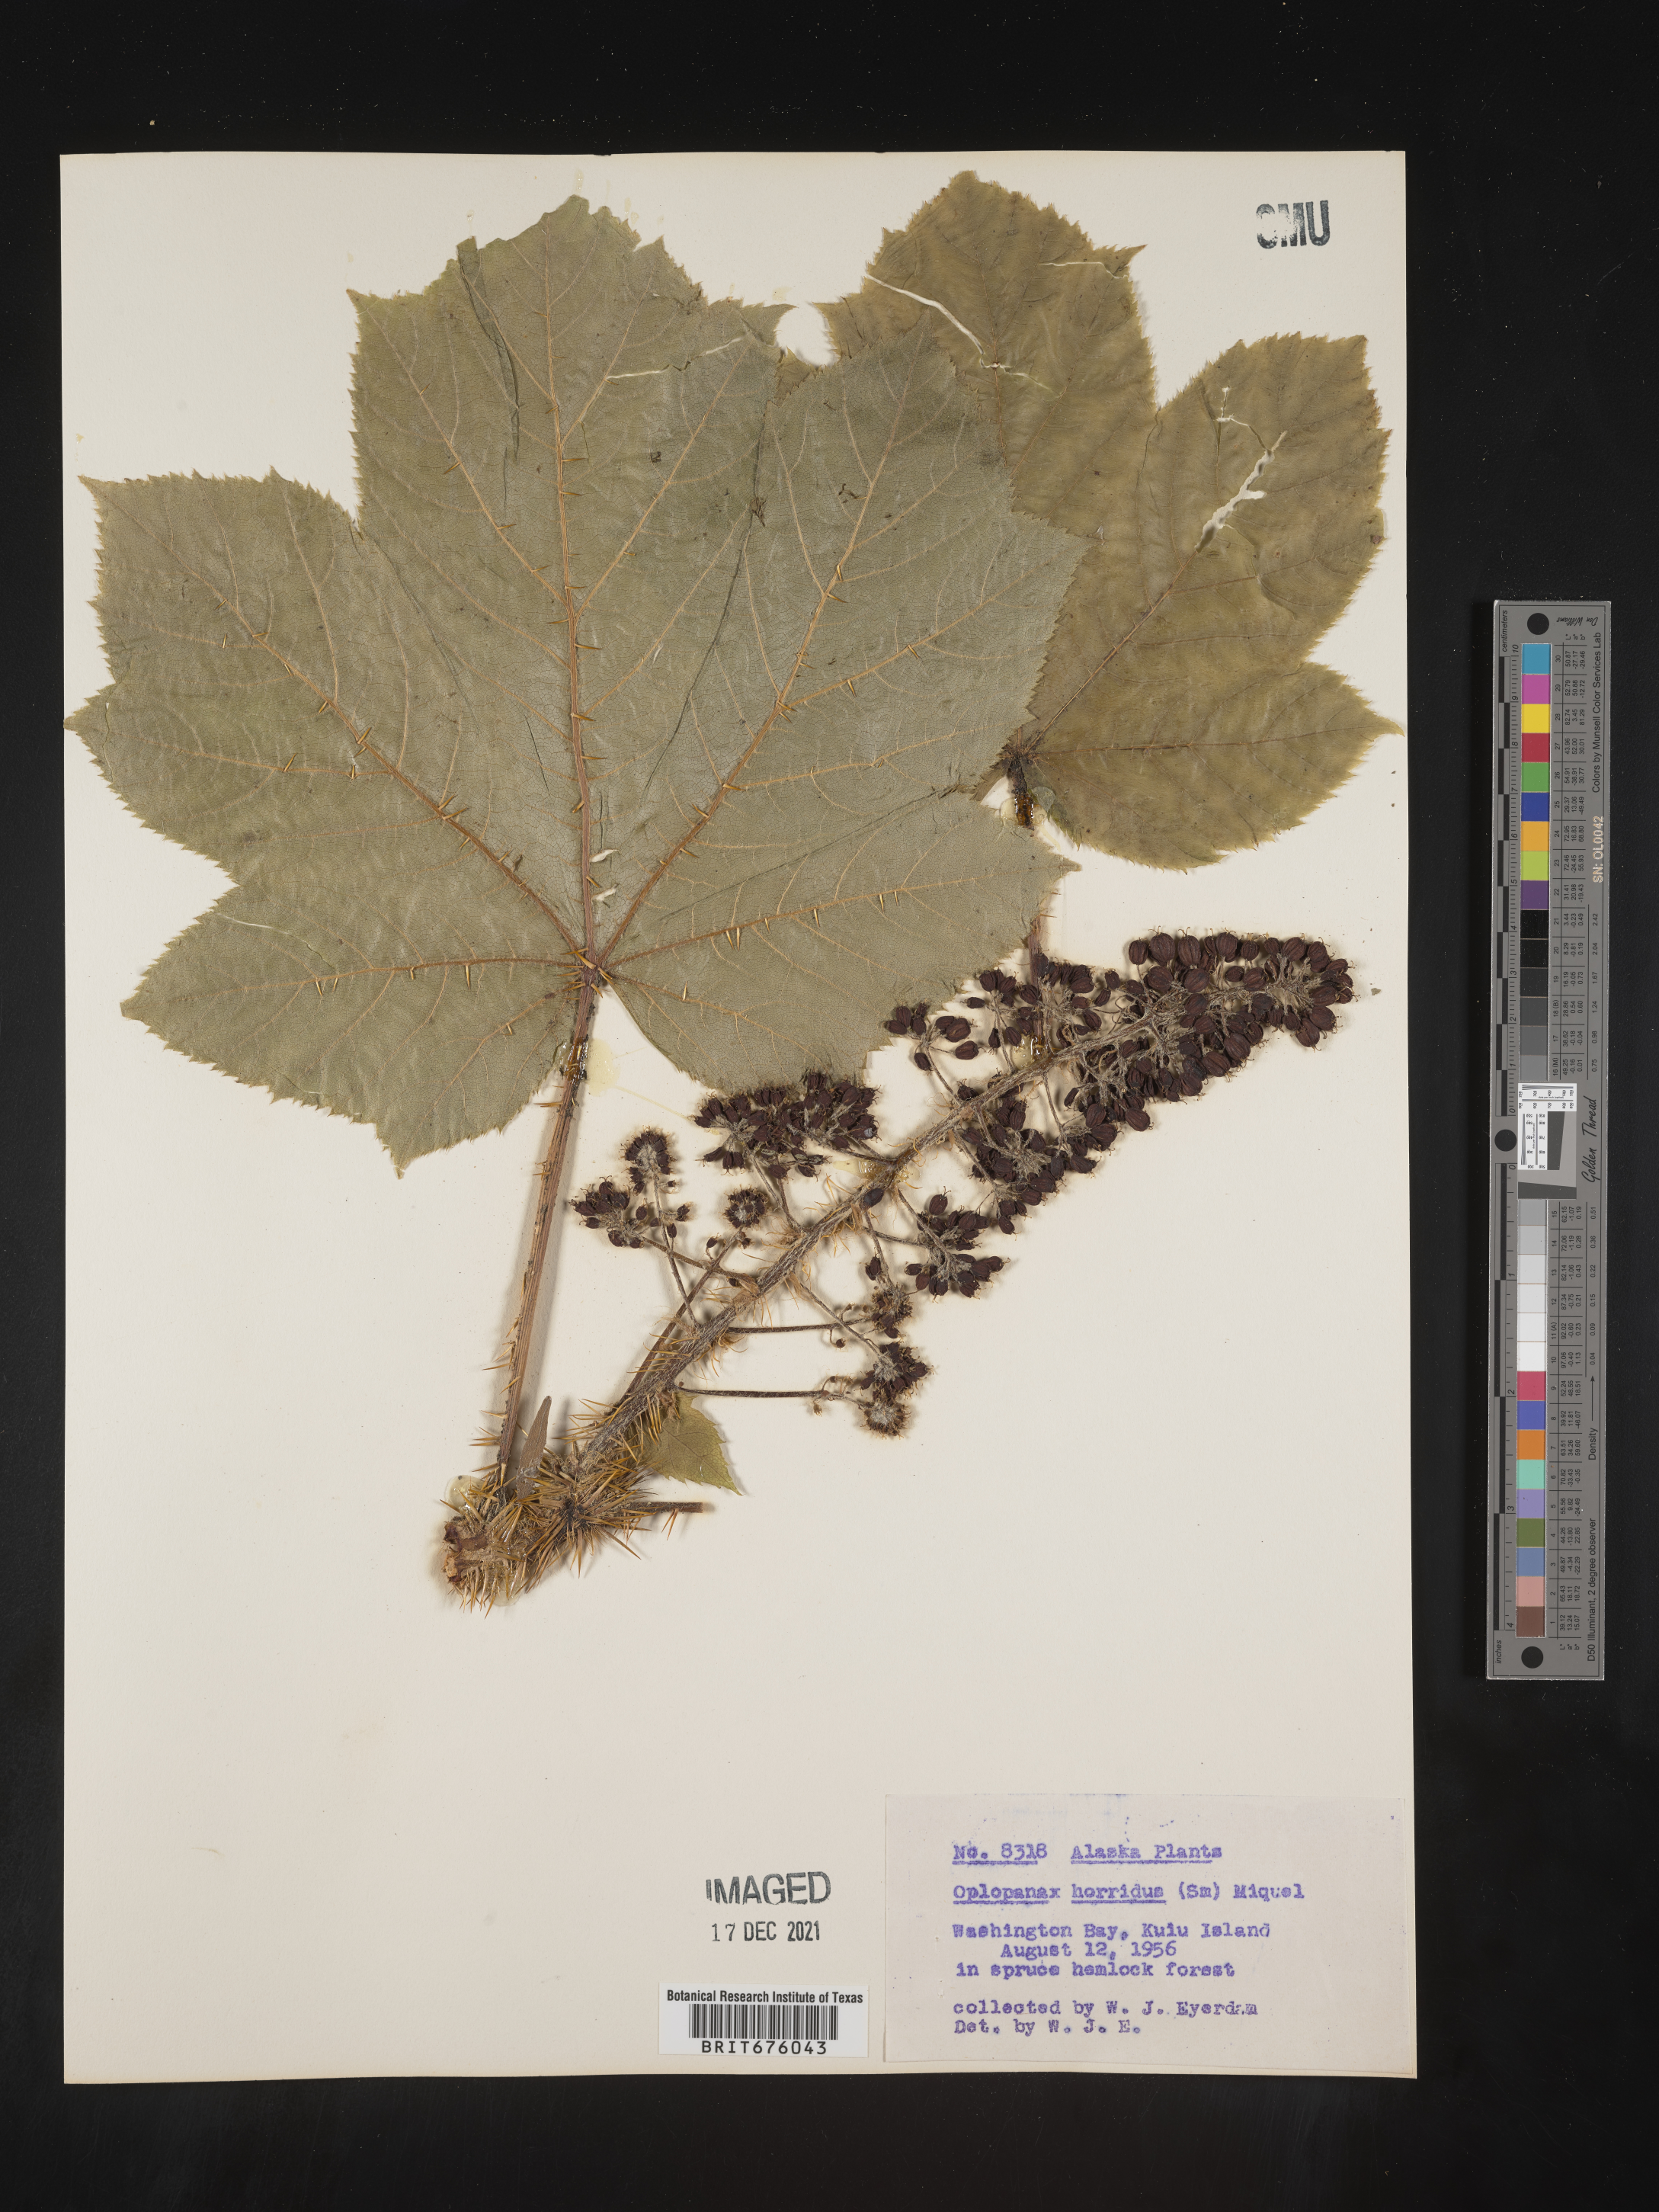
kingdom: Plantae
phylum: Tracheophyta
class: Magnoliopsida
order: Apiales
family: Araliaceae
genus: Oplopanax
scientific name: Oplopanax
